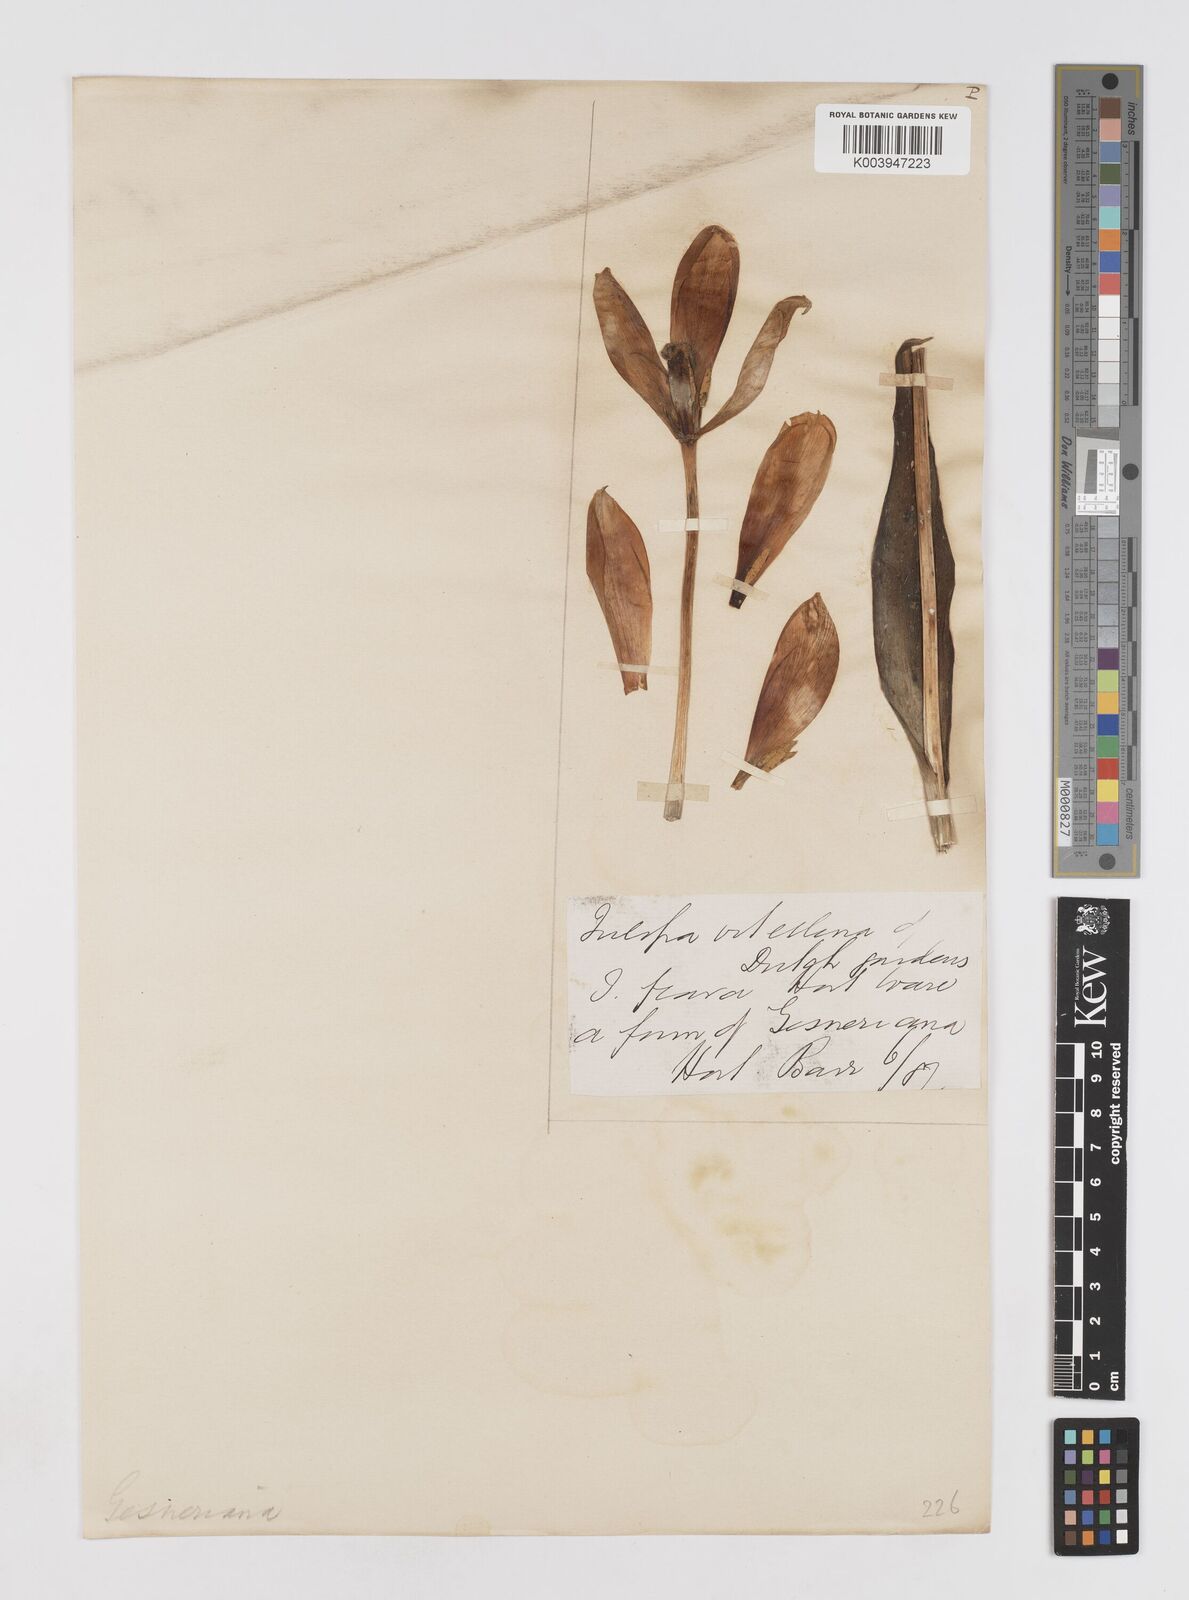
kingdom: Plantae
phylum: Tracheophyta
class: Liliopsida
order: Liliales
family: Liliaceae
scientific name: Liliaceae
